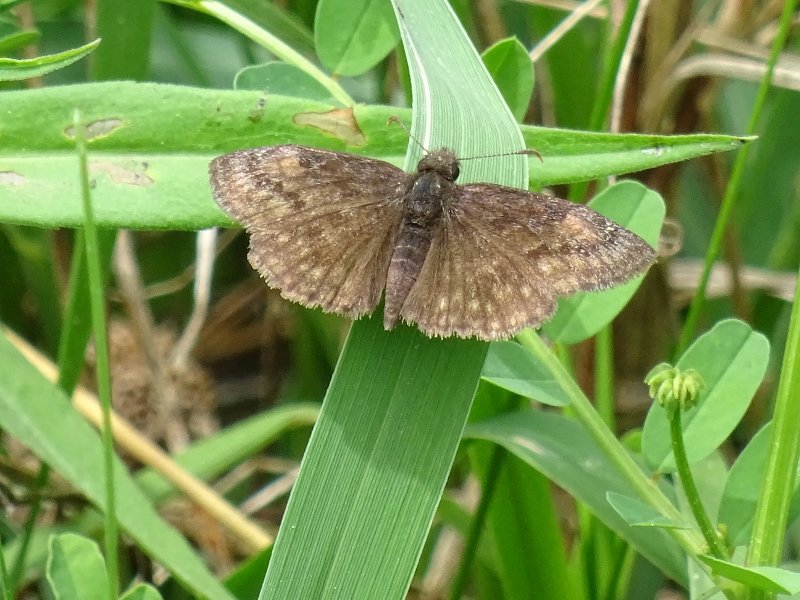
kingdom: Animalia
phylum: Arthropoda
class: Insecta
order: Lepidoptera
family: Hesperiidae
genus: Gesta
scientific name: Gesta
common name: Wild Indigo Duskywing
